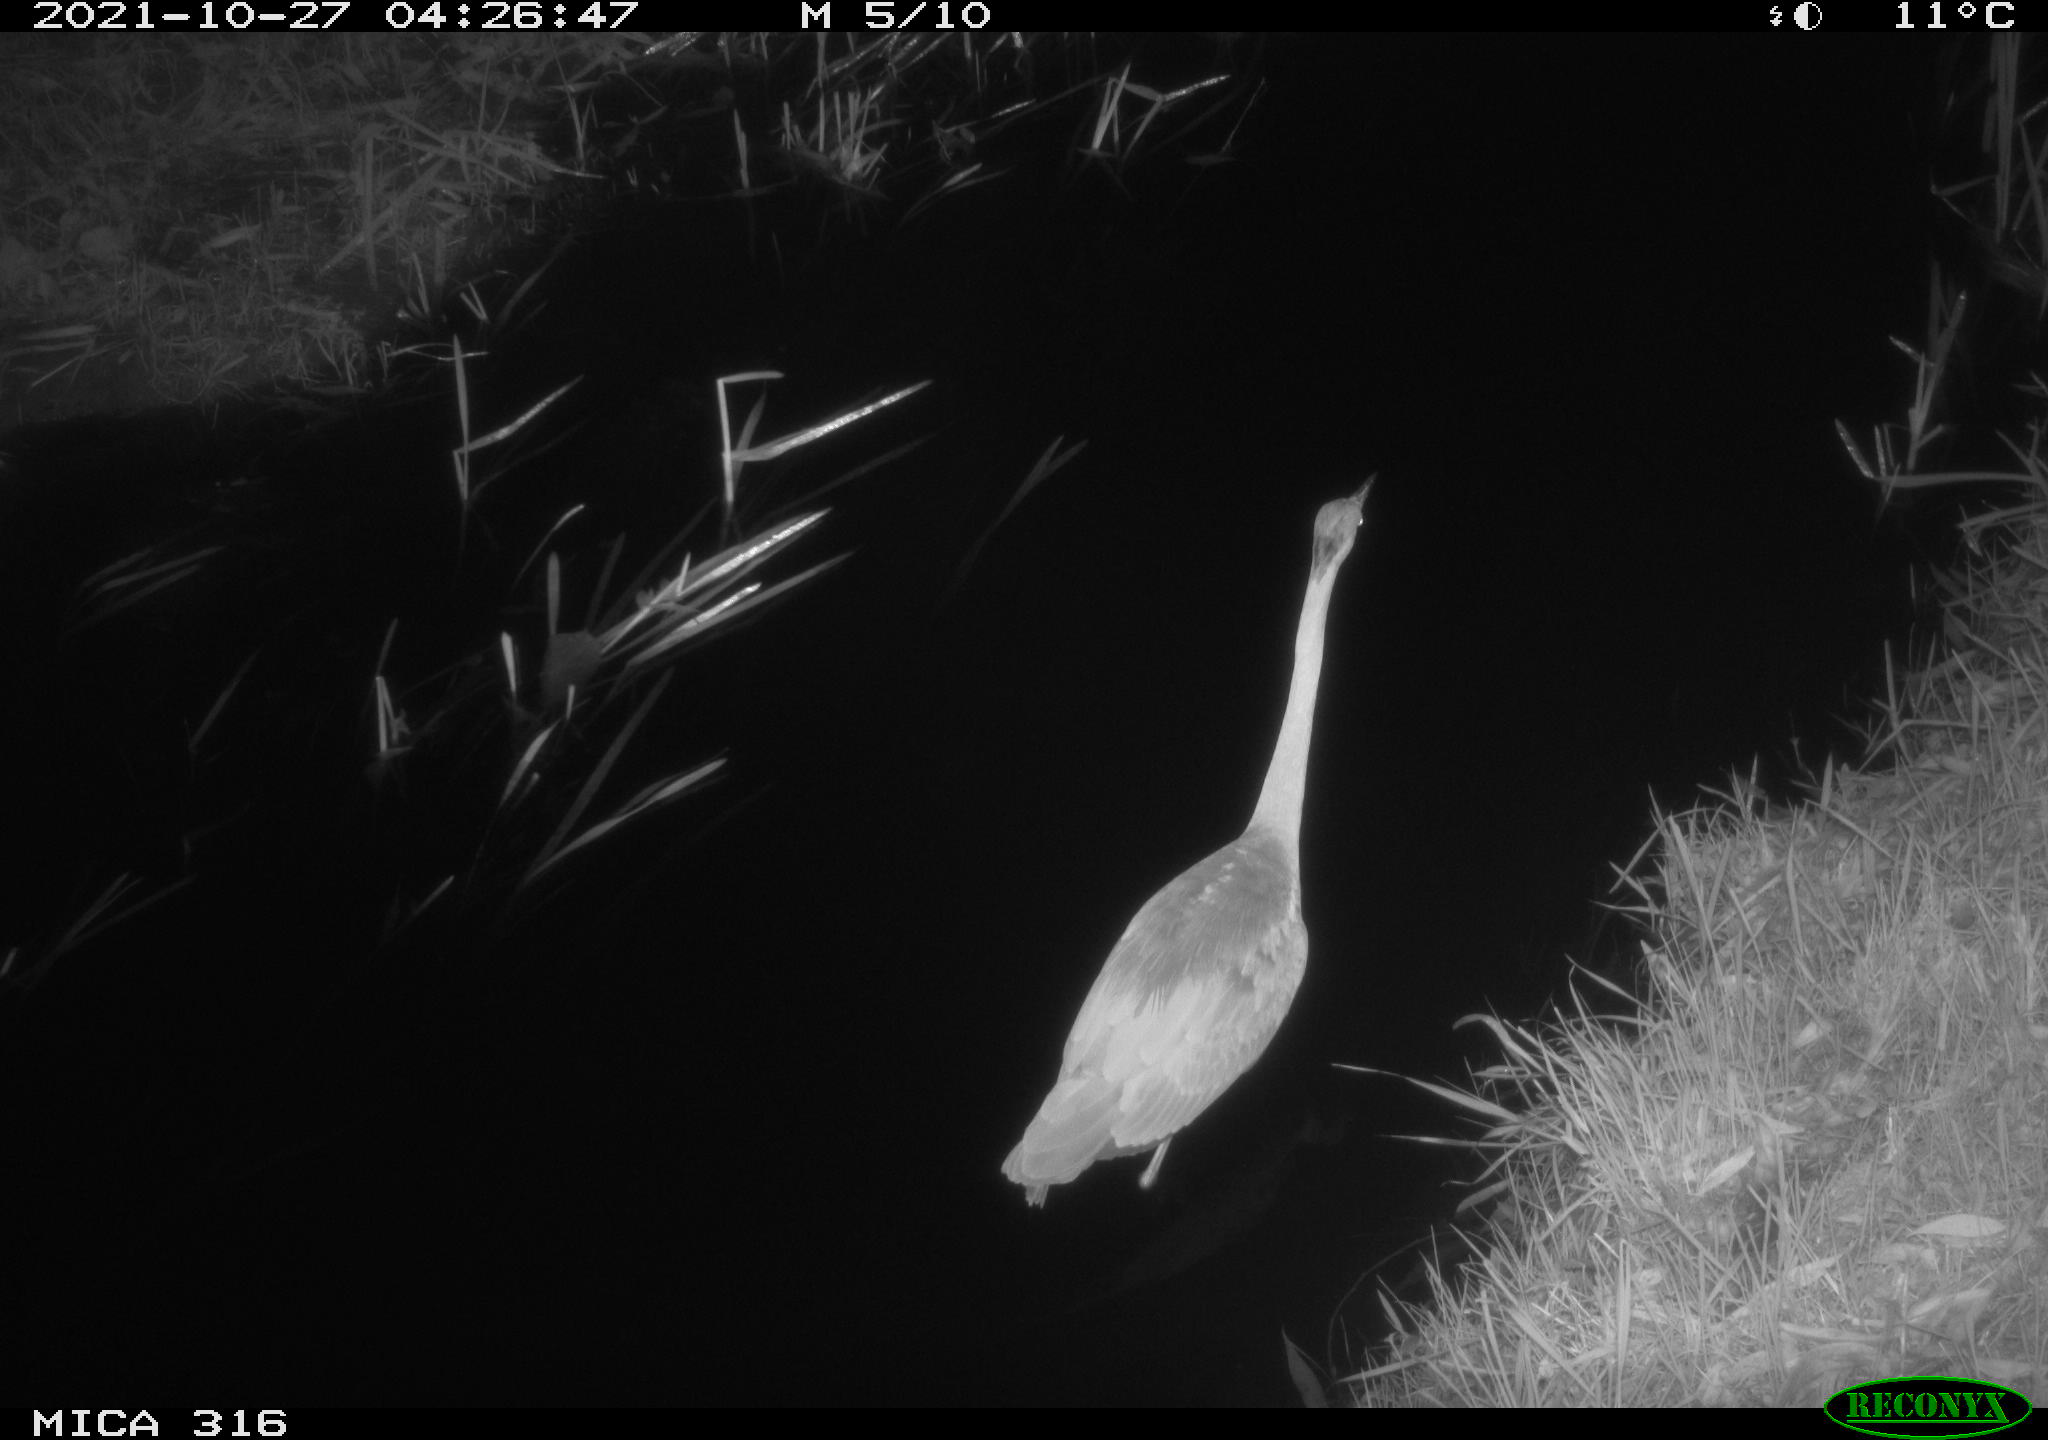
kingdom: Animalia
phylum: Chordata
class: Aves
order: Pelecaniformes
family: Ardeidae
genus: Ardea
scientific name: Ardea
